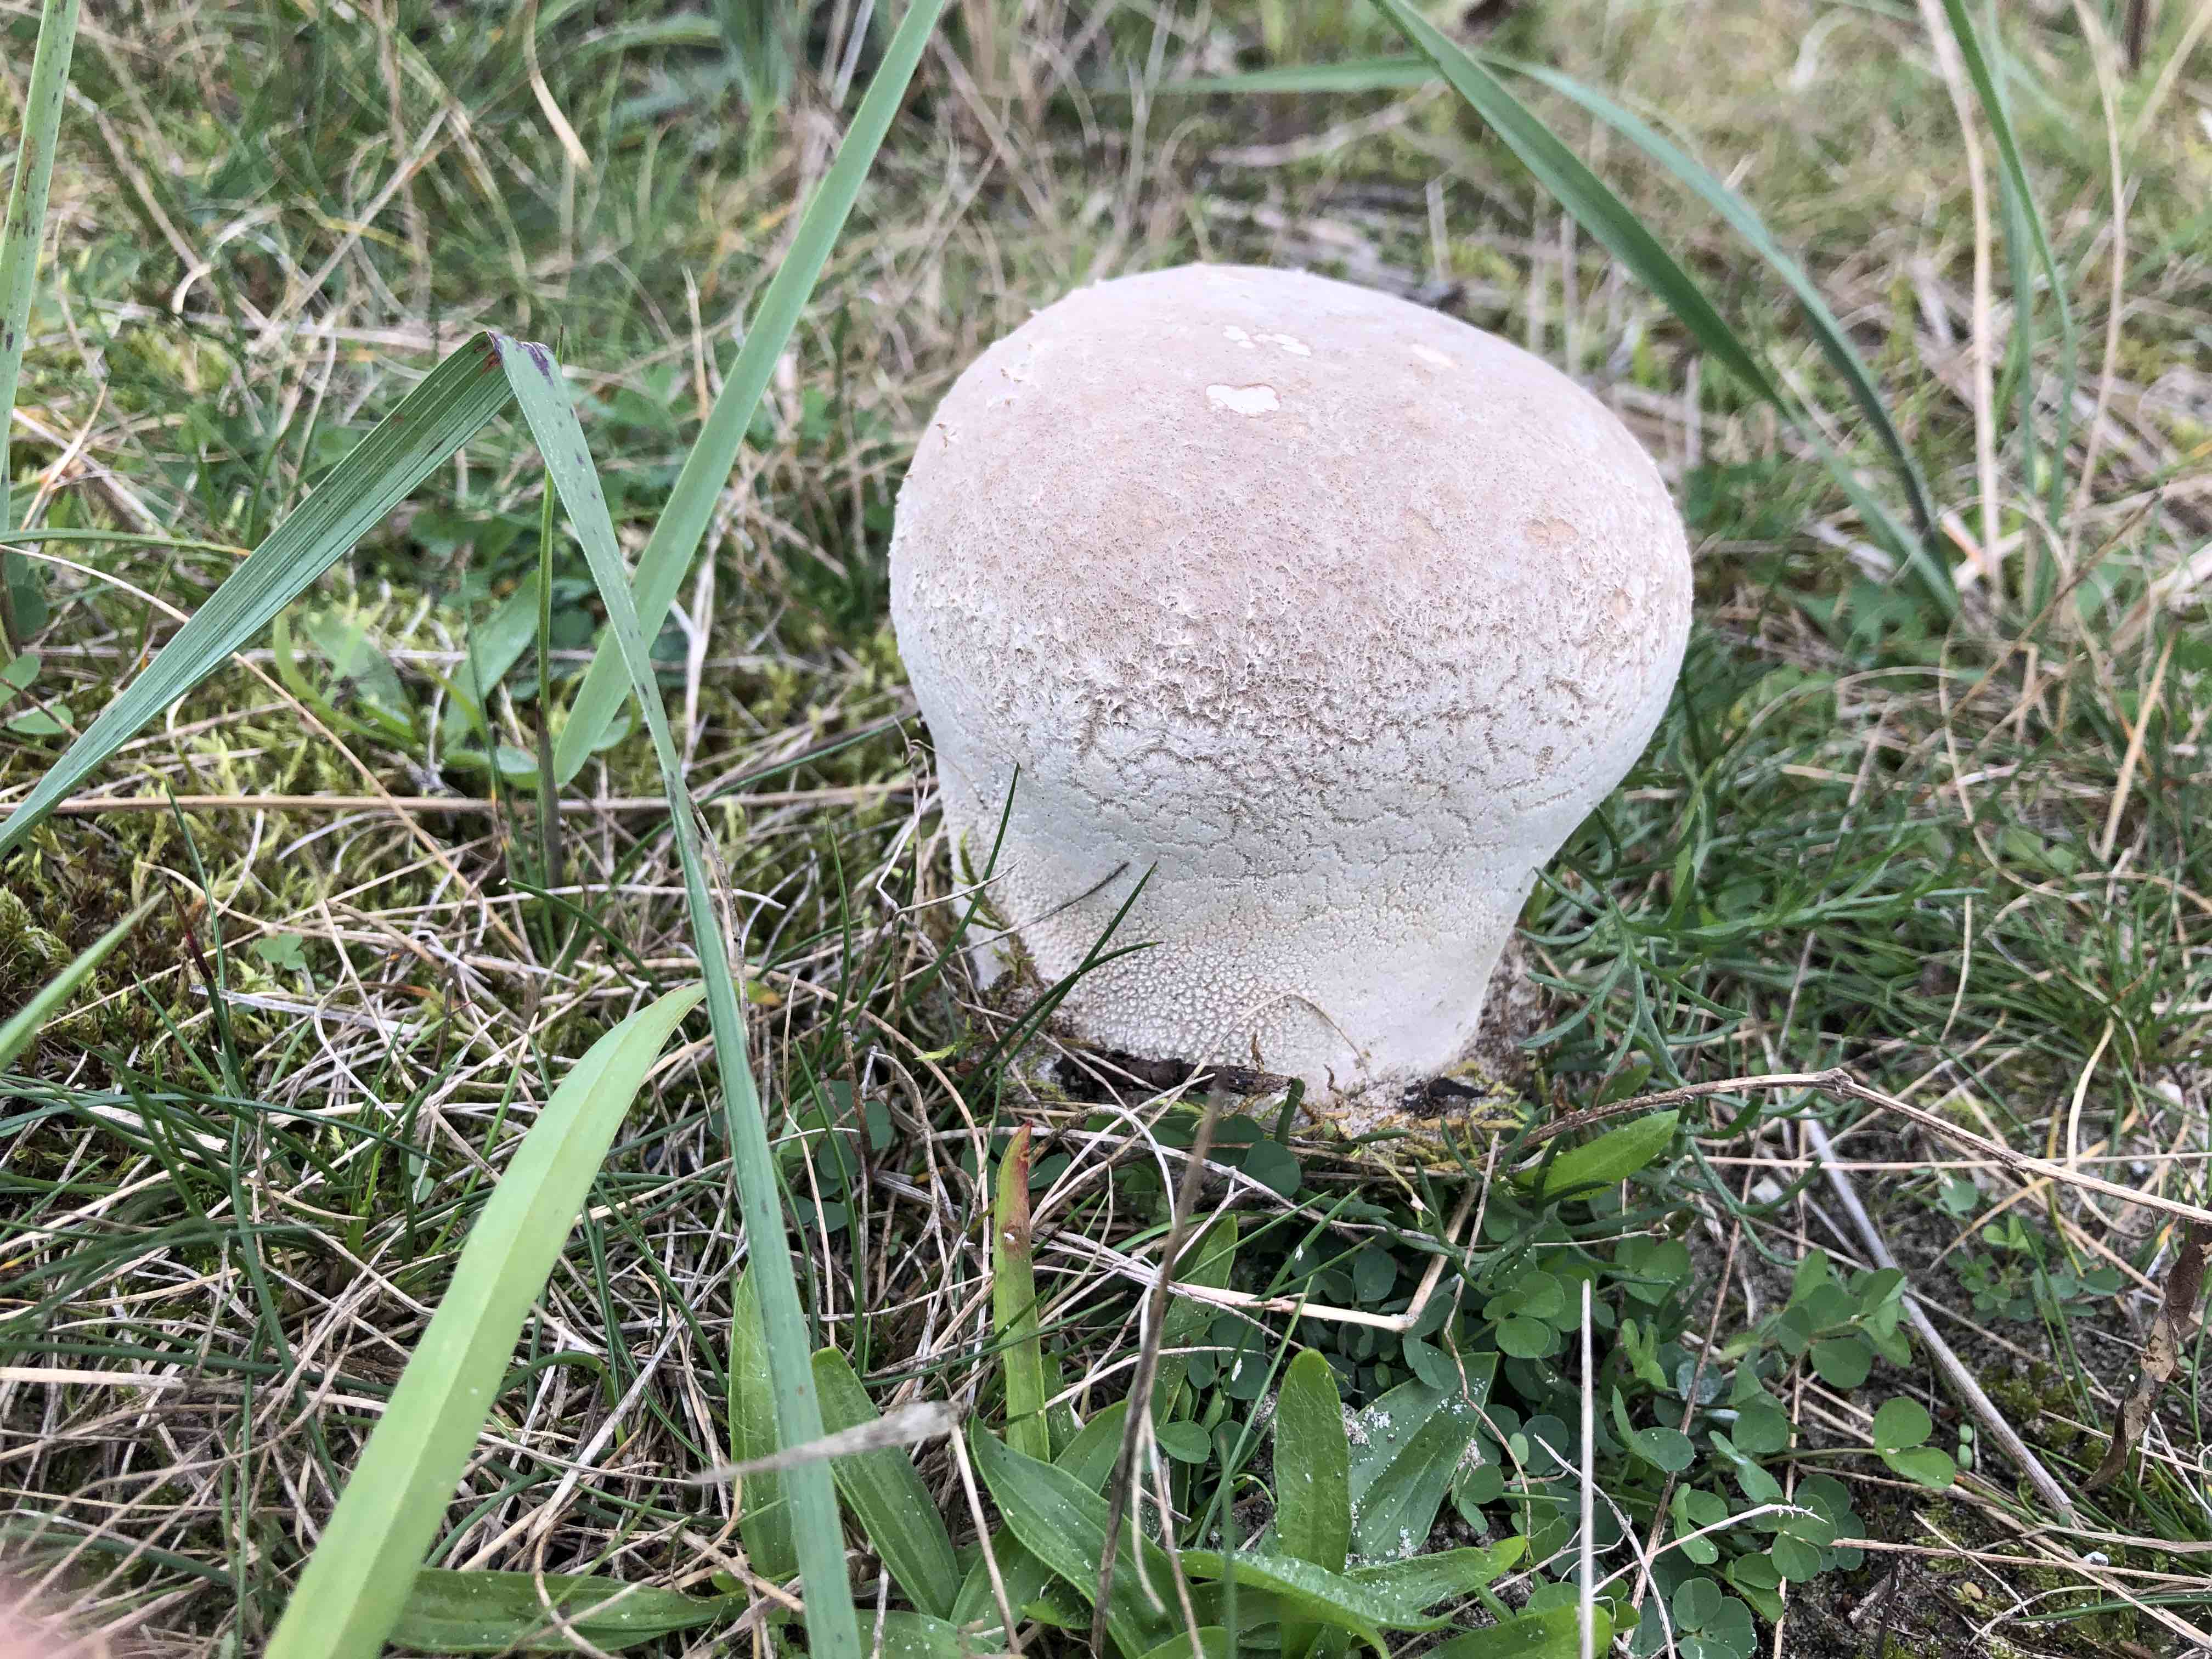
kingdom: Fungi
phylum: Basidiomycota
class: Agaricomycetes
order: Agaricales
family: Lycoperdaceae
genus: Bovistella
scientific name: Bovistella utriformis
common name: skællet støvbold
